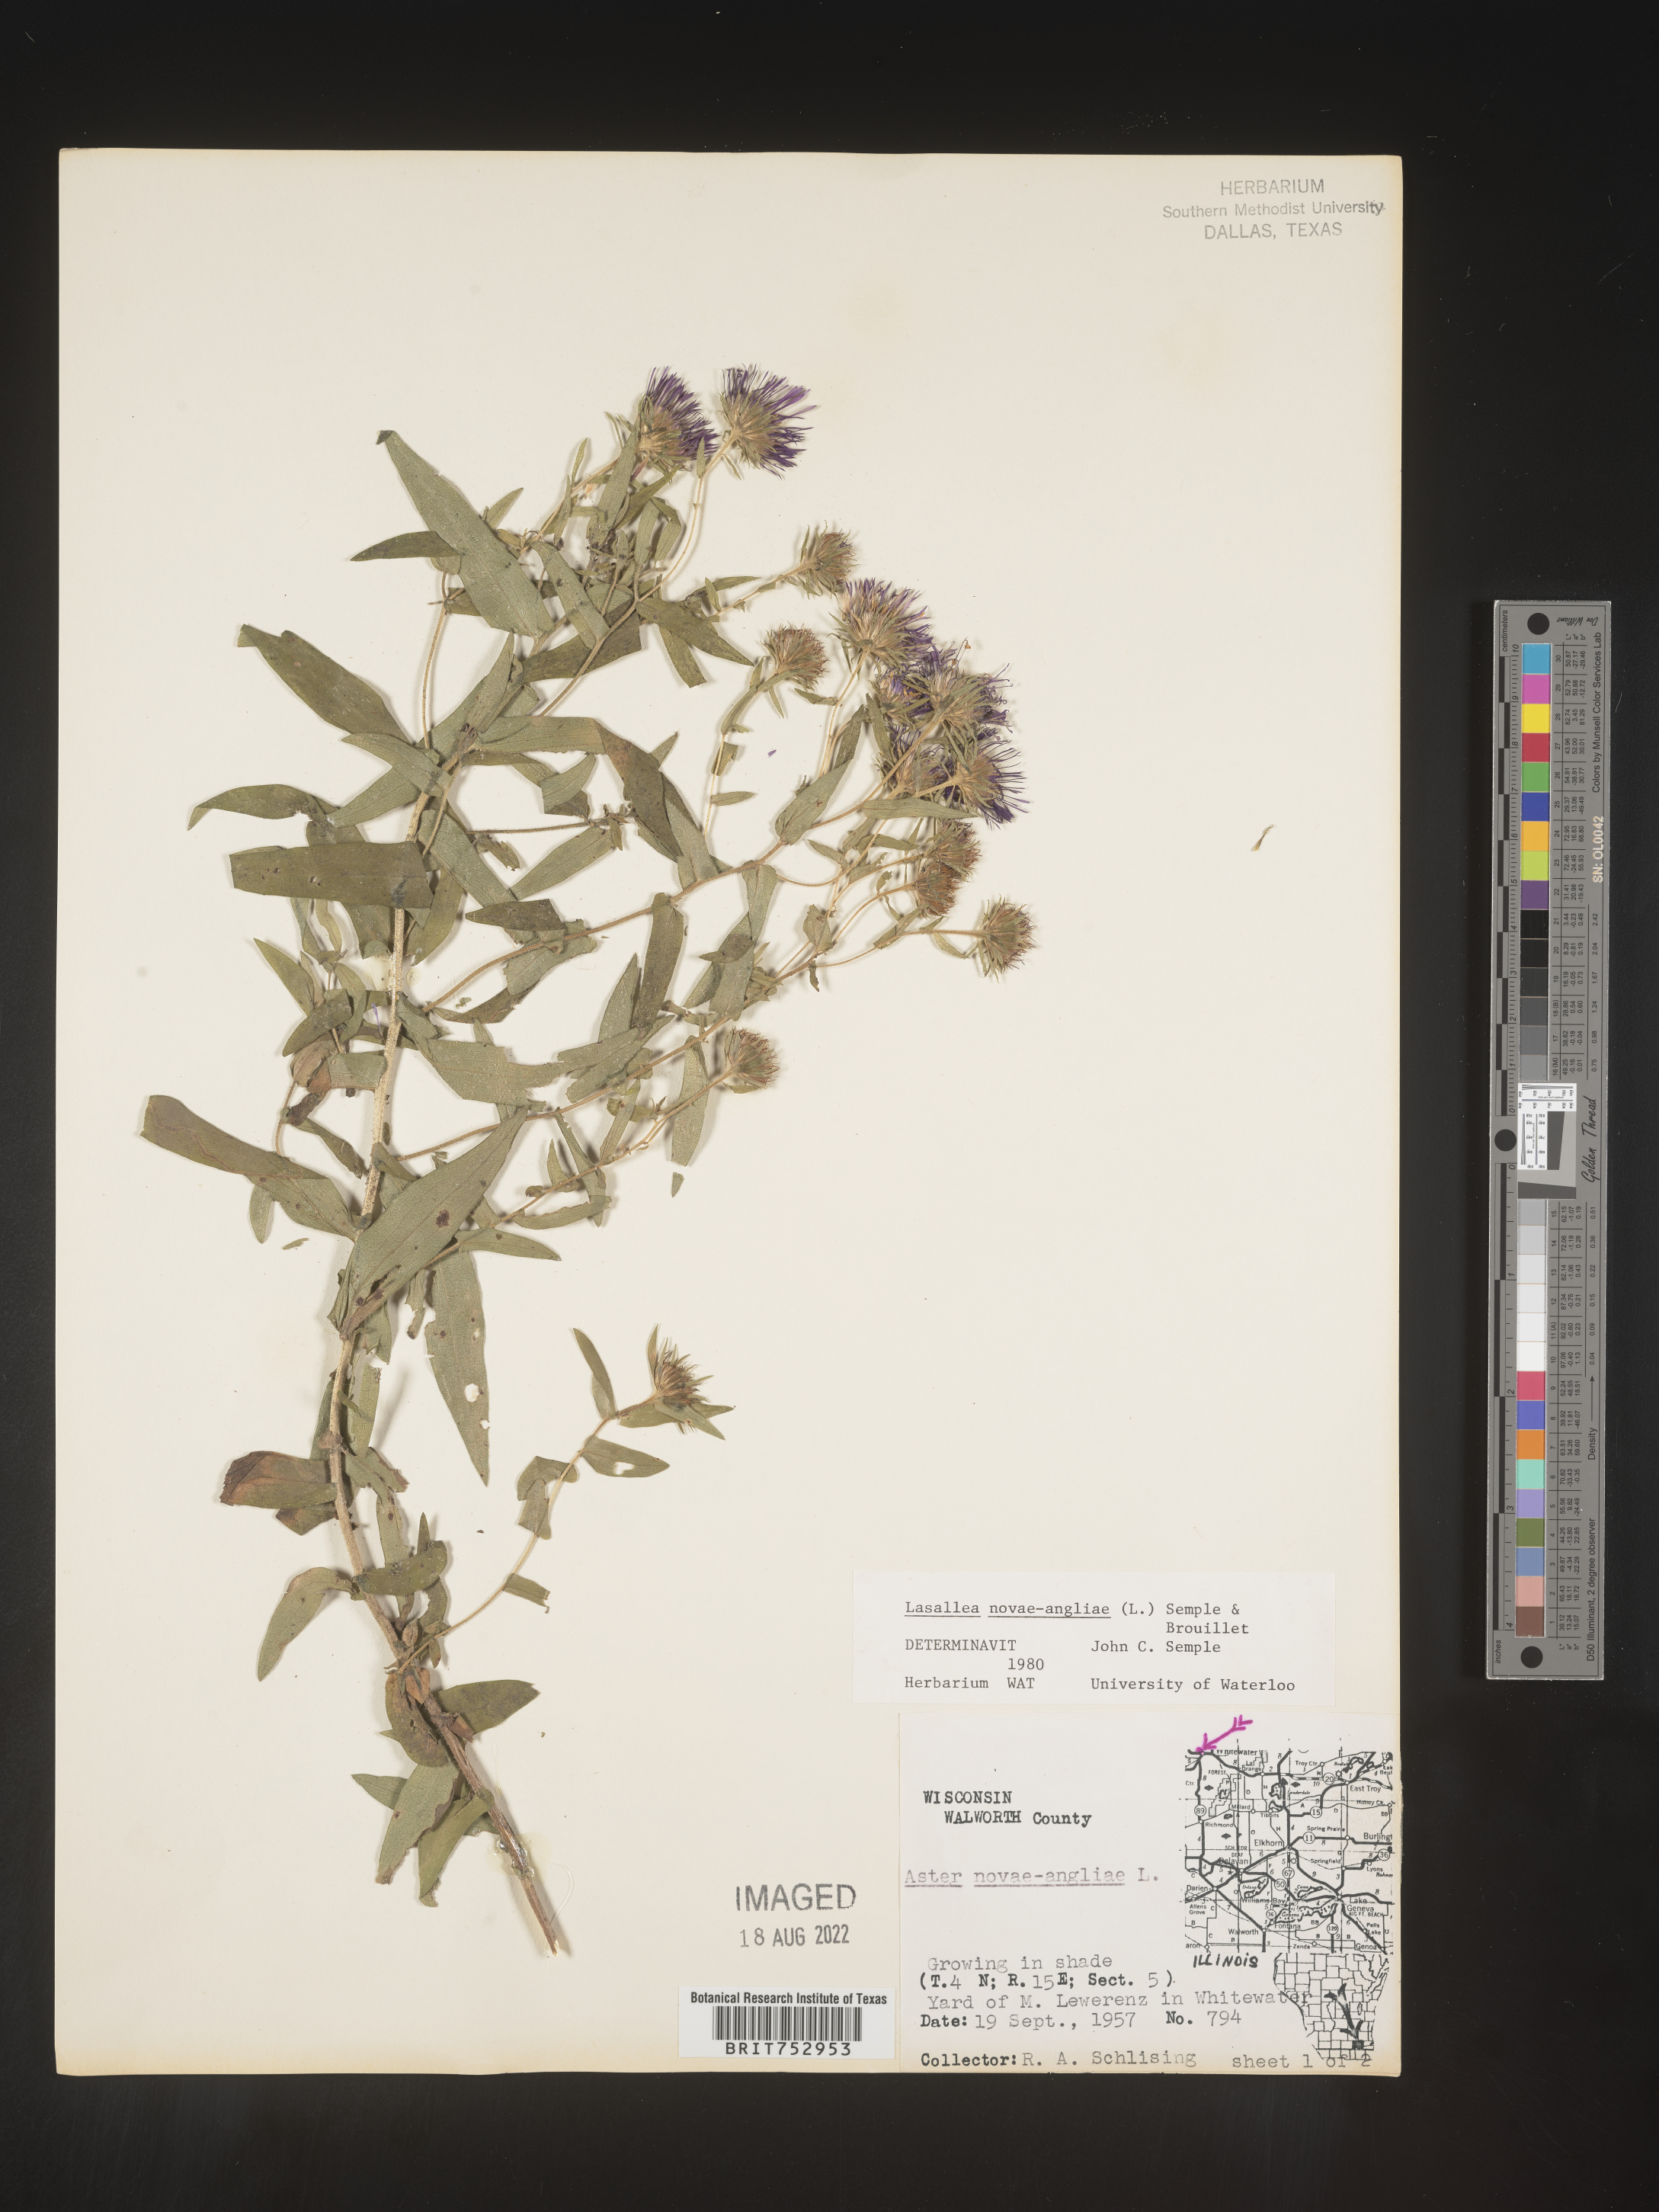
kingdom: Plantae
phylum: Tracheophyta
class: Magnoliopsida
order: Asterales
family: Asteraceae
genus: Symphyotrichum
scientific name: Symphyotrichum novae-angliae
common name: Michaelmas daisy
